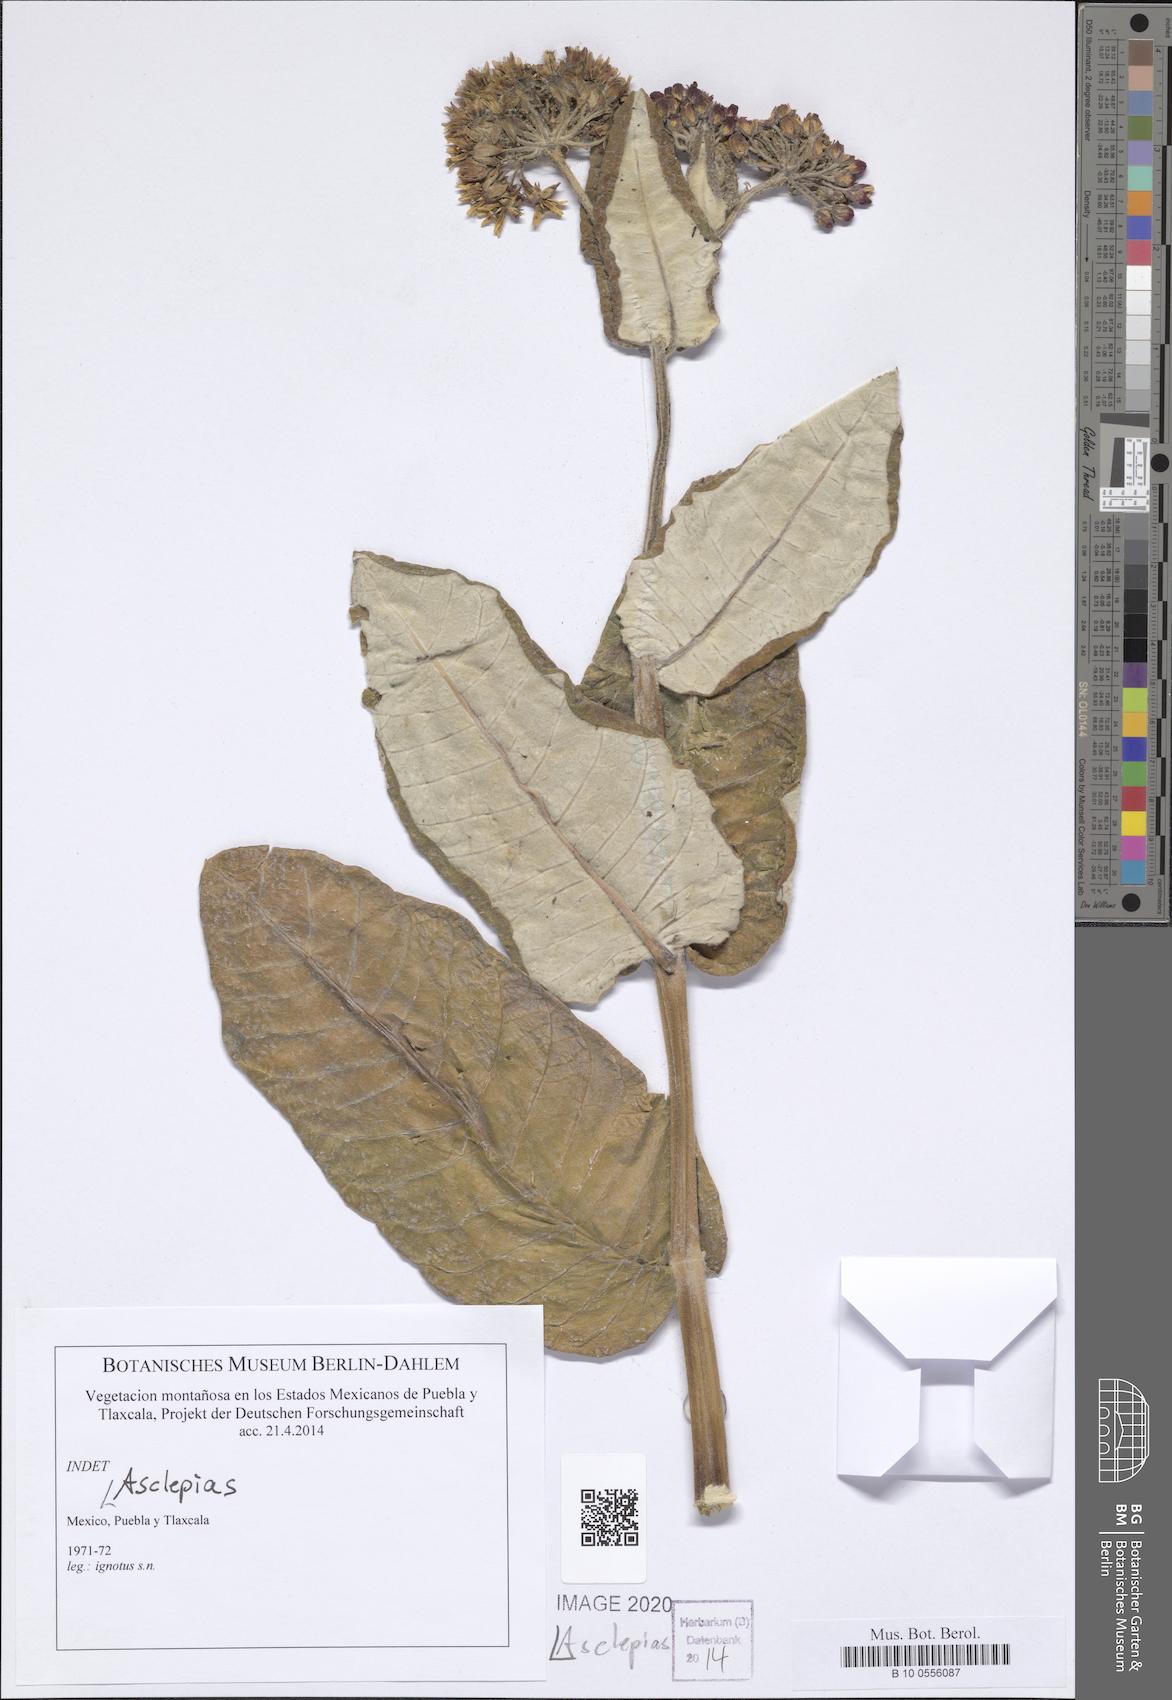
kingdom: Plantae
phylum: Tracheophyta
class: Magnoliopsida
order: Gentianales
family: Apocynaceae
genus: Asclepias
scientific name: Asclepias
